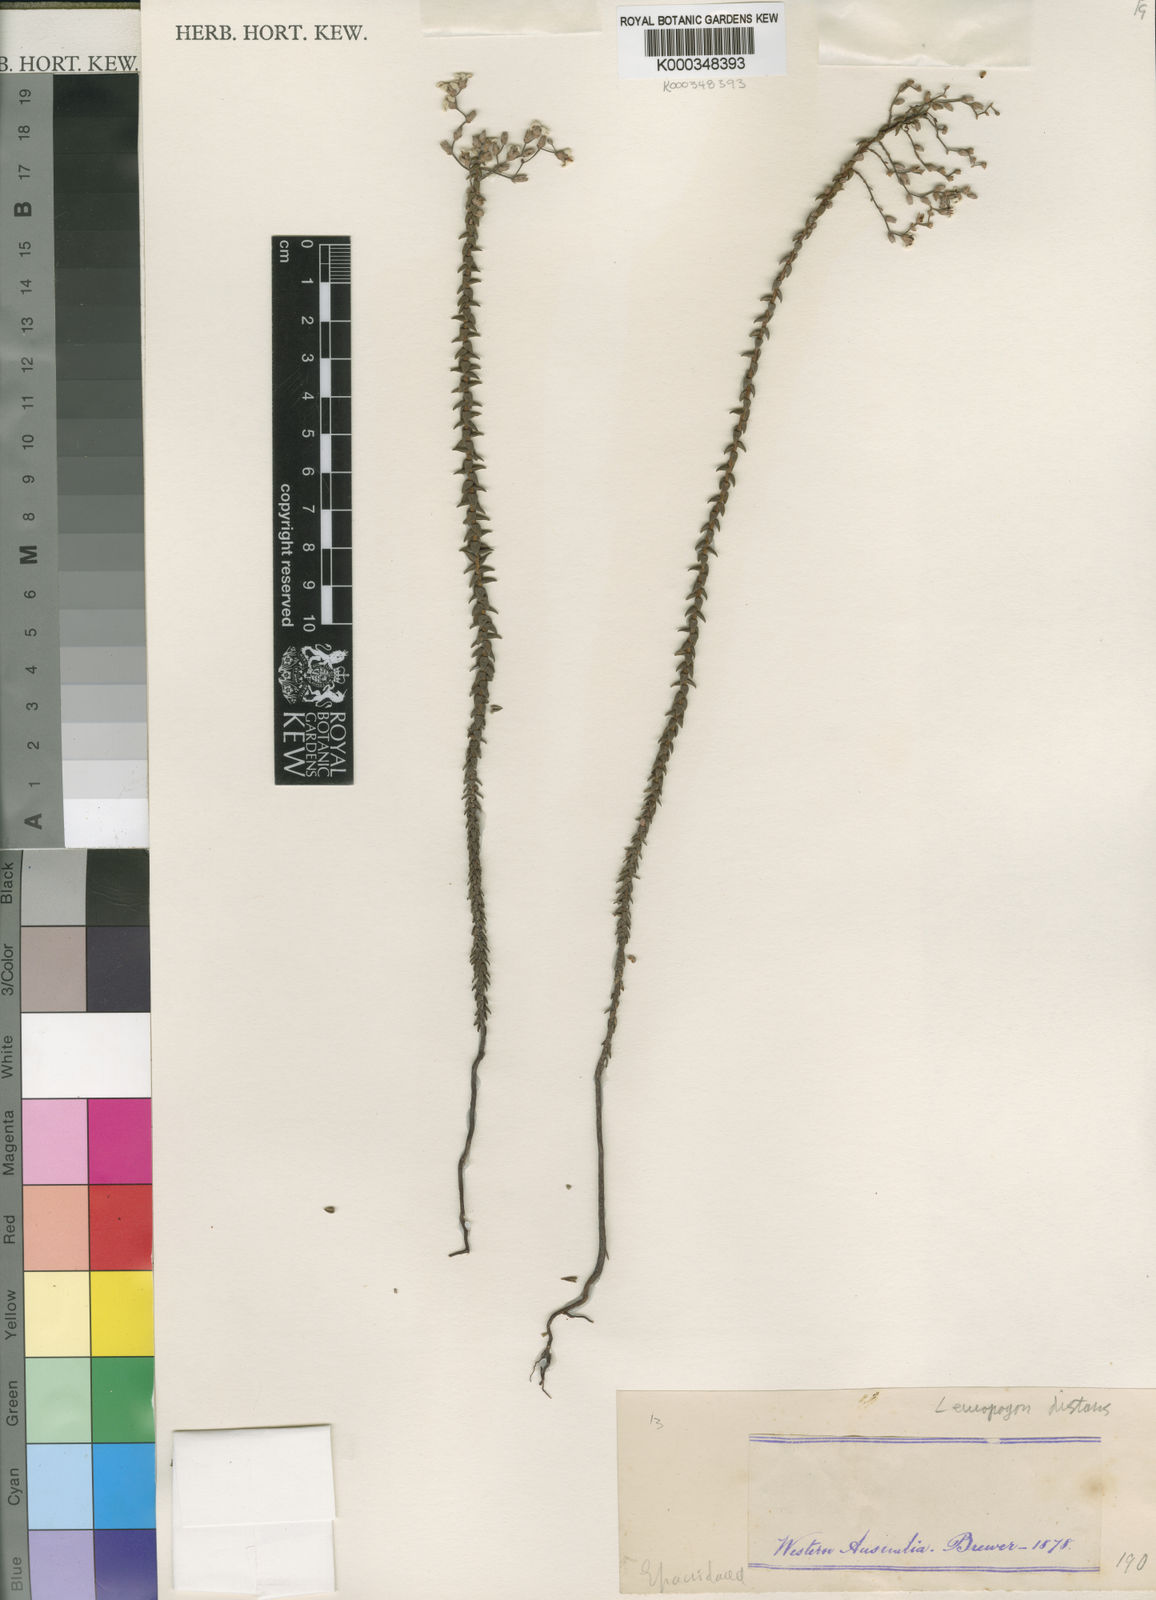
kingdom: Plantae
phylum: Tracheophyta
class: Magnoliopsida
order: Ericales
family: Ericaceae
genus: Leucopogon
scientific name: Leucopogon distans
